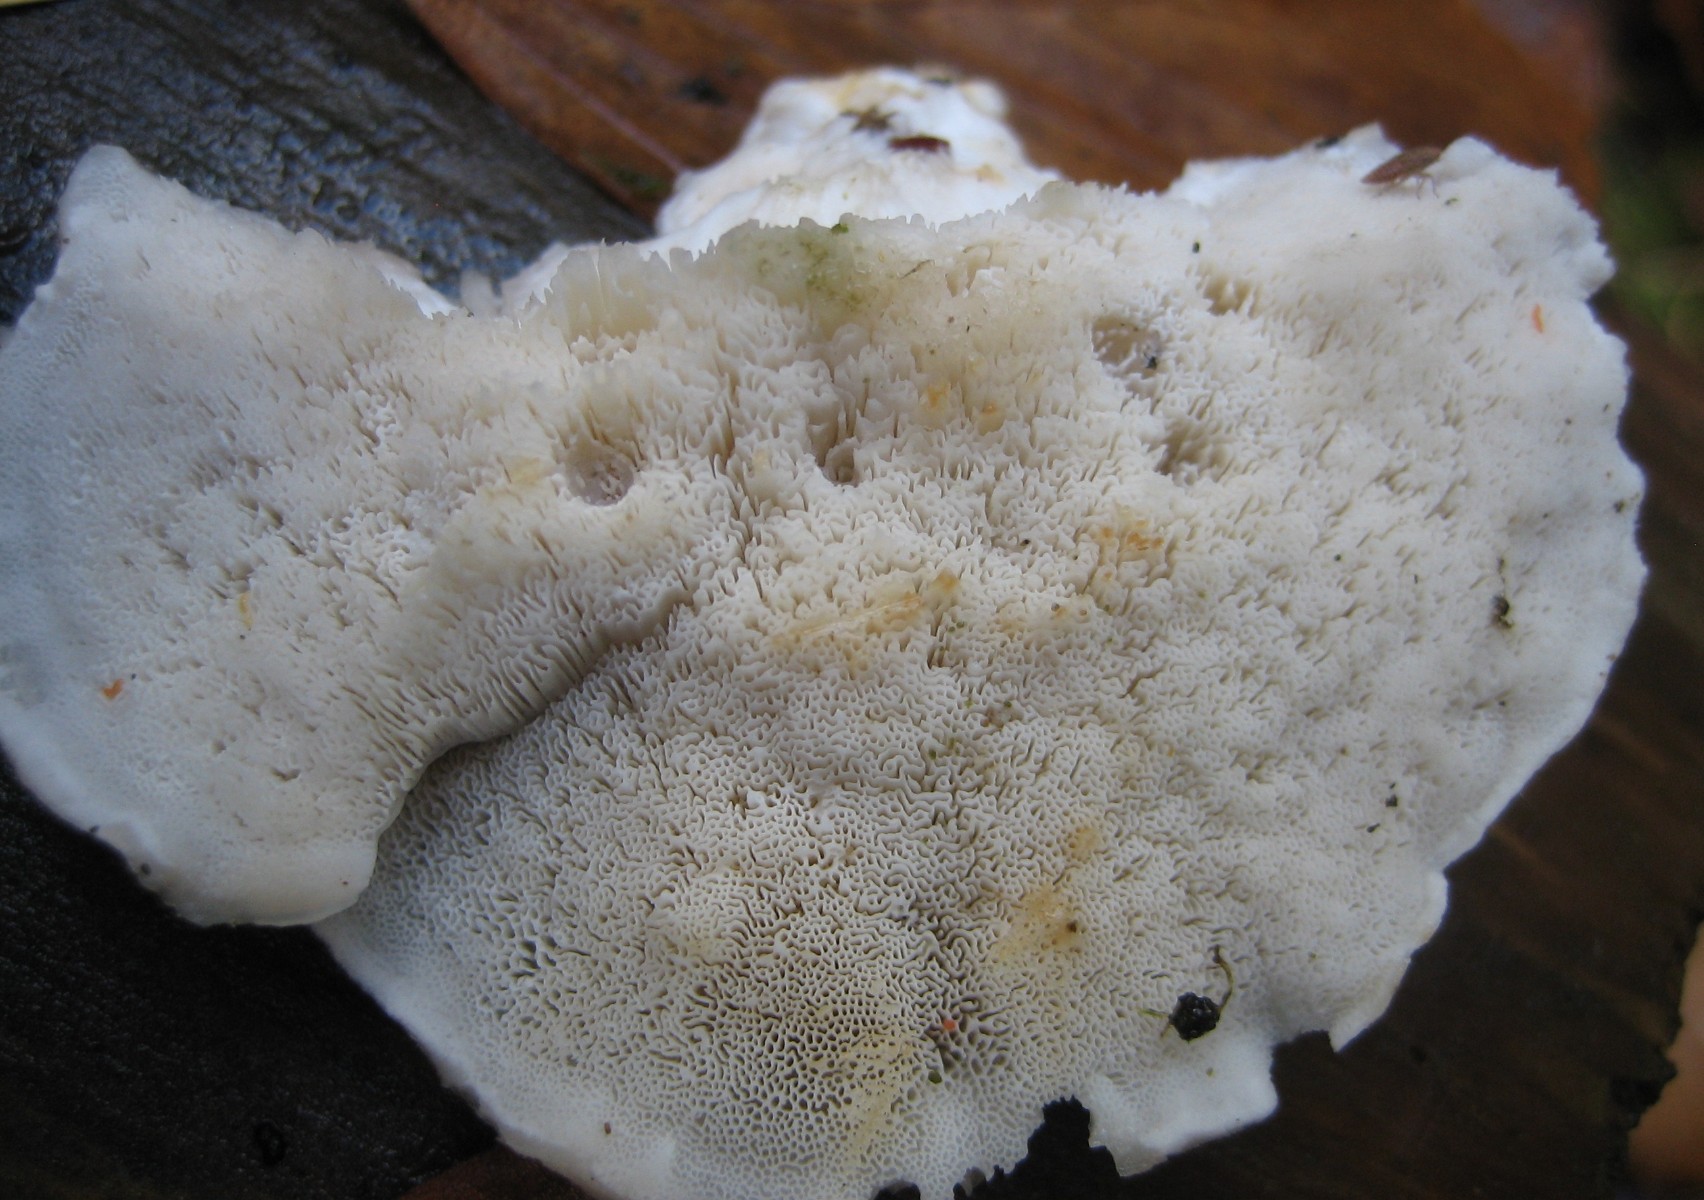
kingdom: Fungi
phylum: Basidiomycota
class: Agaricomycetes
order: Polyporales
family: Incrustoporiaceae
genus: Tyromyces
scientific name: Tyromyces lacteus
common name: mælkehvid kødporesvamp
